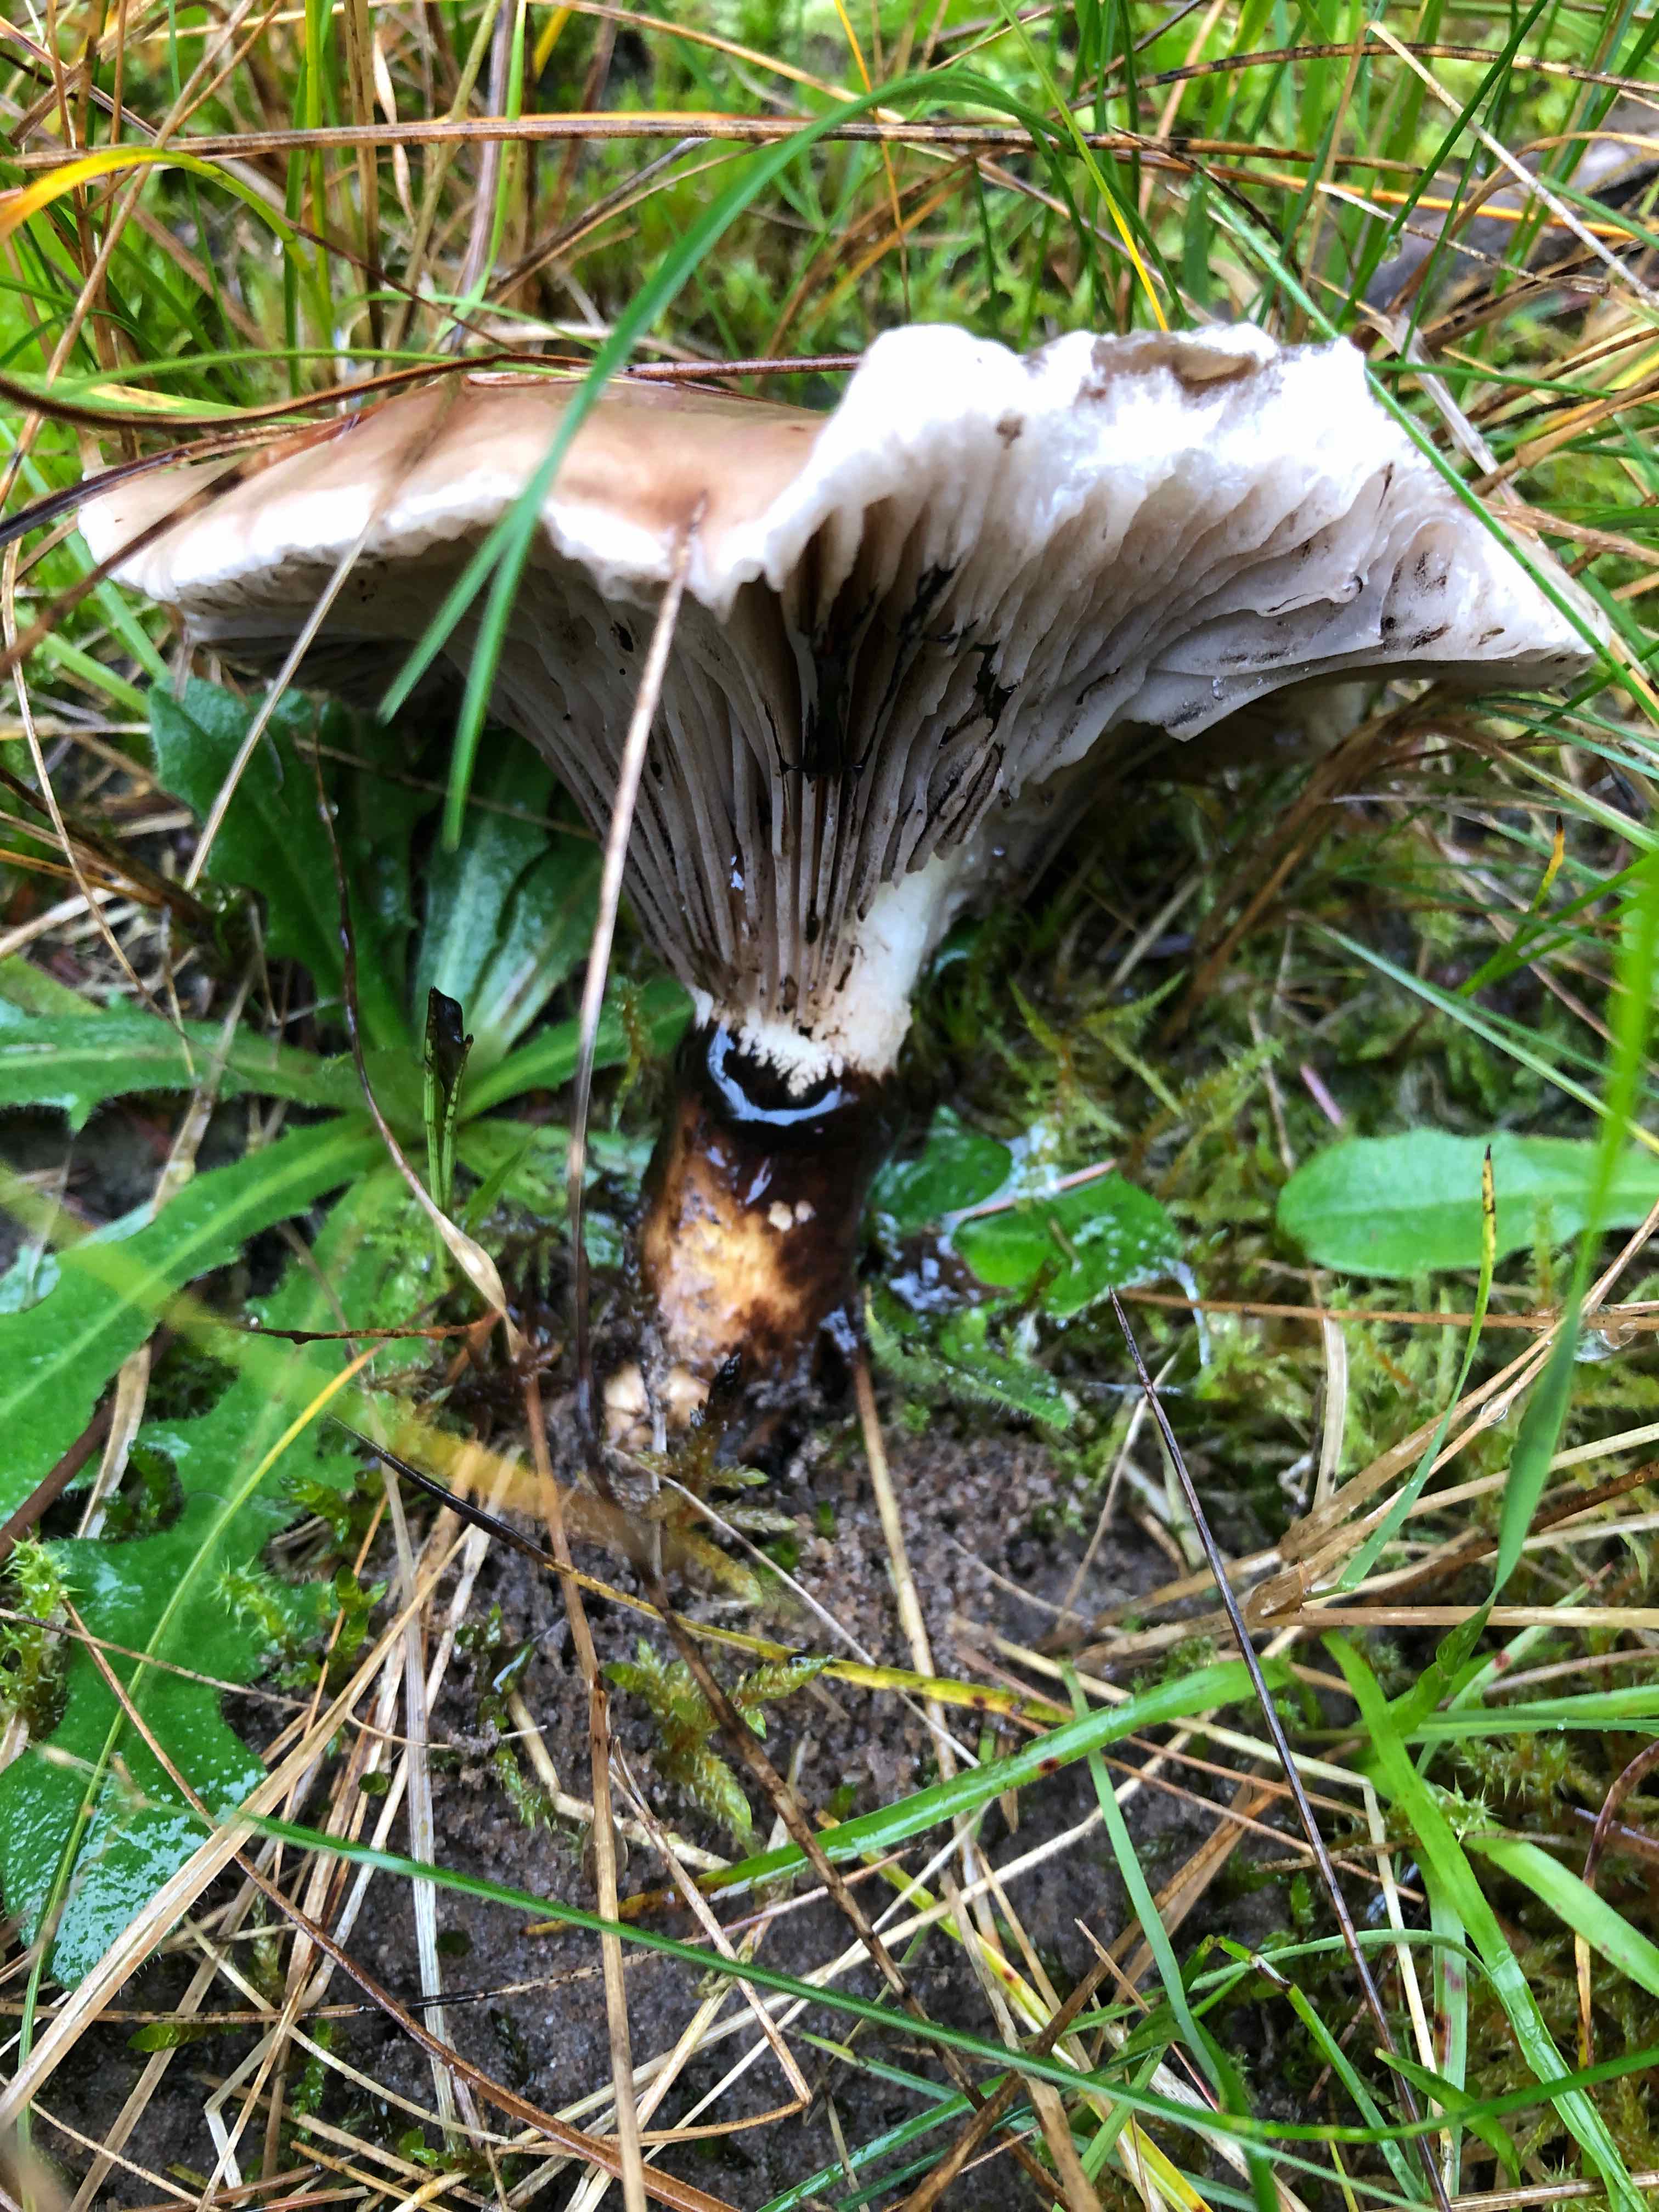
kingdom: Fungi
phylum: Basidiomycota
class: Agaricomycetes
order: Boletales
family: Gomphidiaceae
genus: Gomphidius
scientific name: Gomphidius glutinosus
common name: grå slimslør
